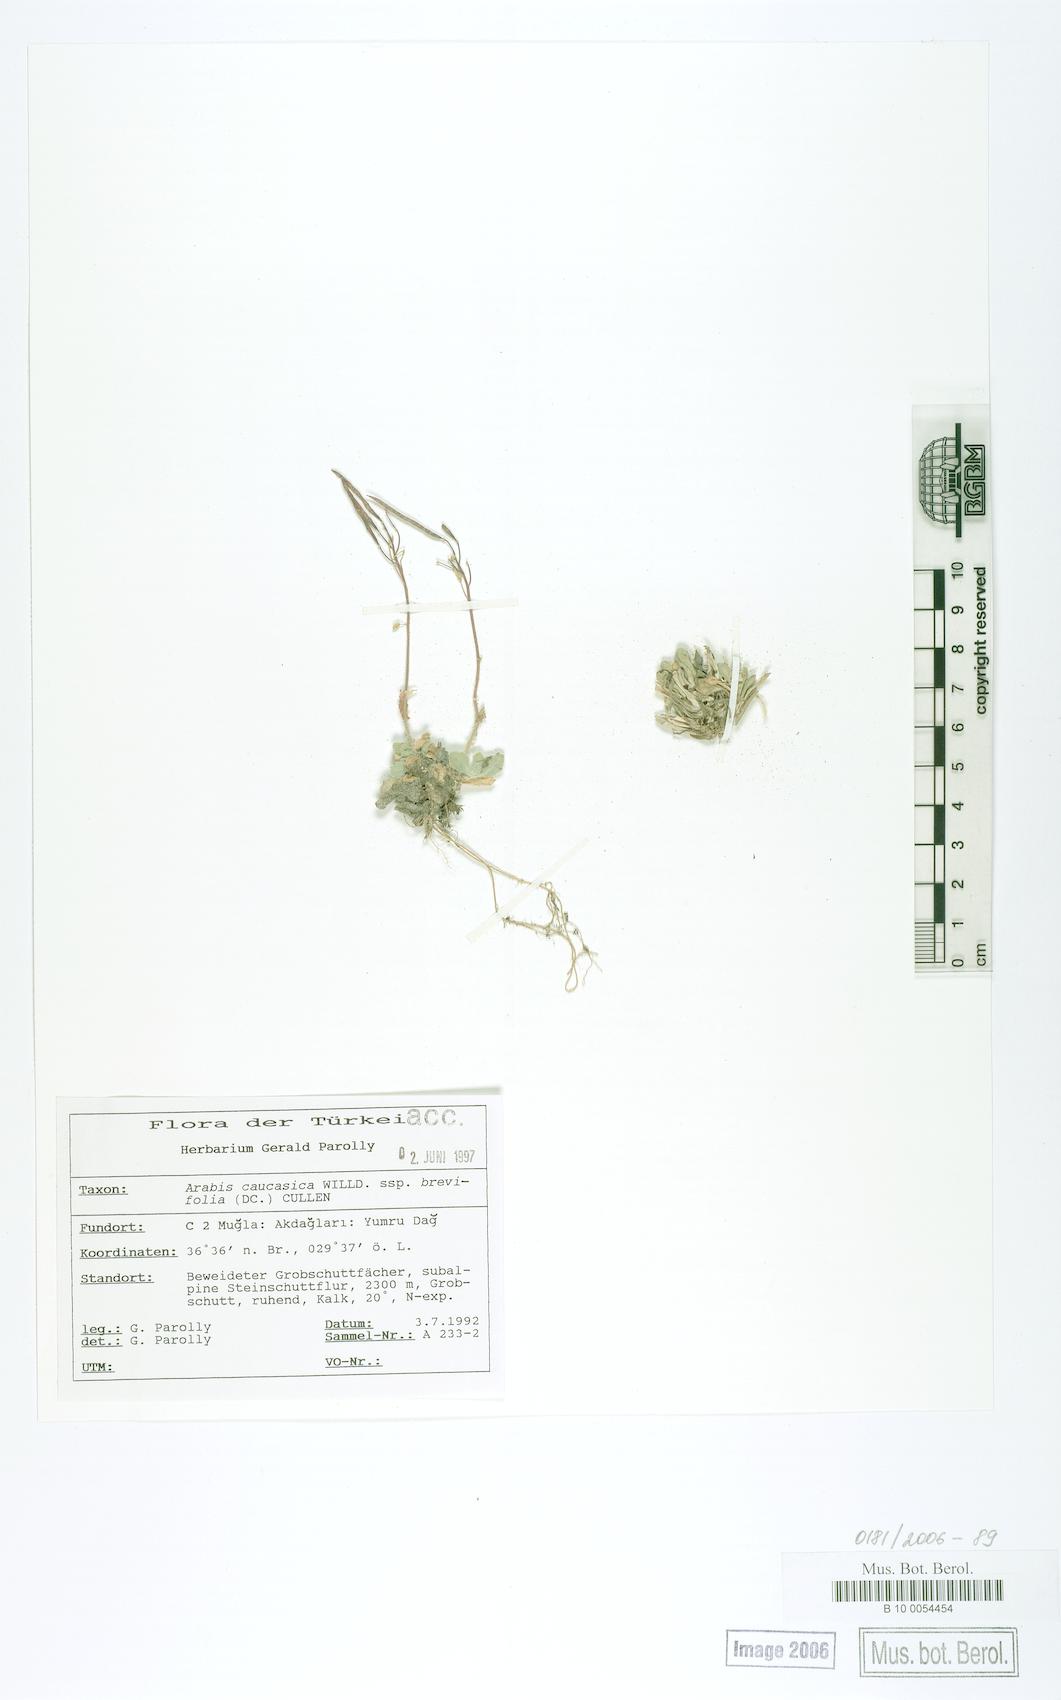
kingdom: Plantae
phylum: Tracheophyta
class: Magnoliopsida
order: Brassicales
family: Brassicaceae
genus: Arabis
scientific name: Arabis caucasica
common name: Gray rockcress
